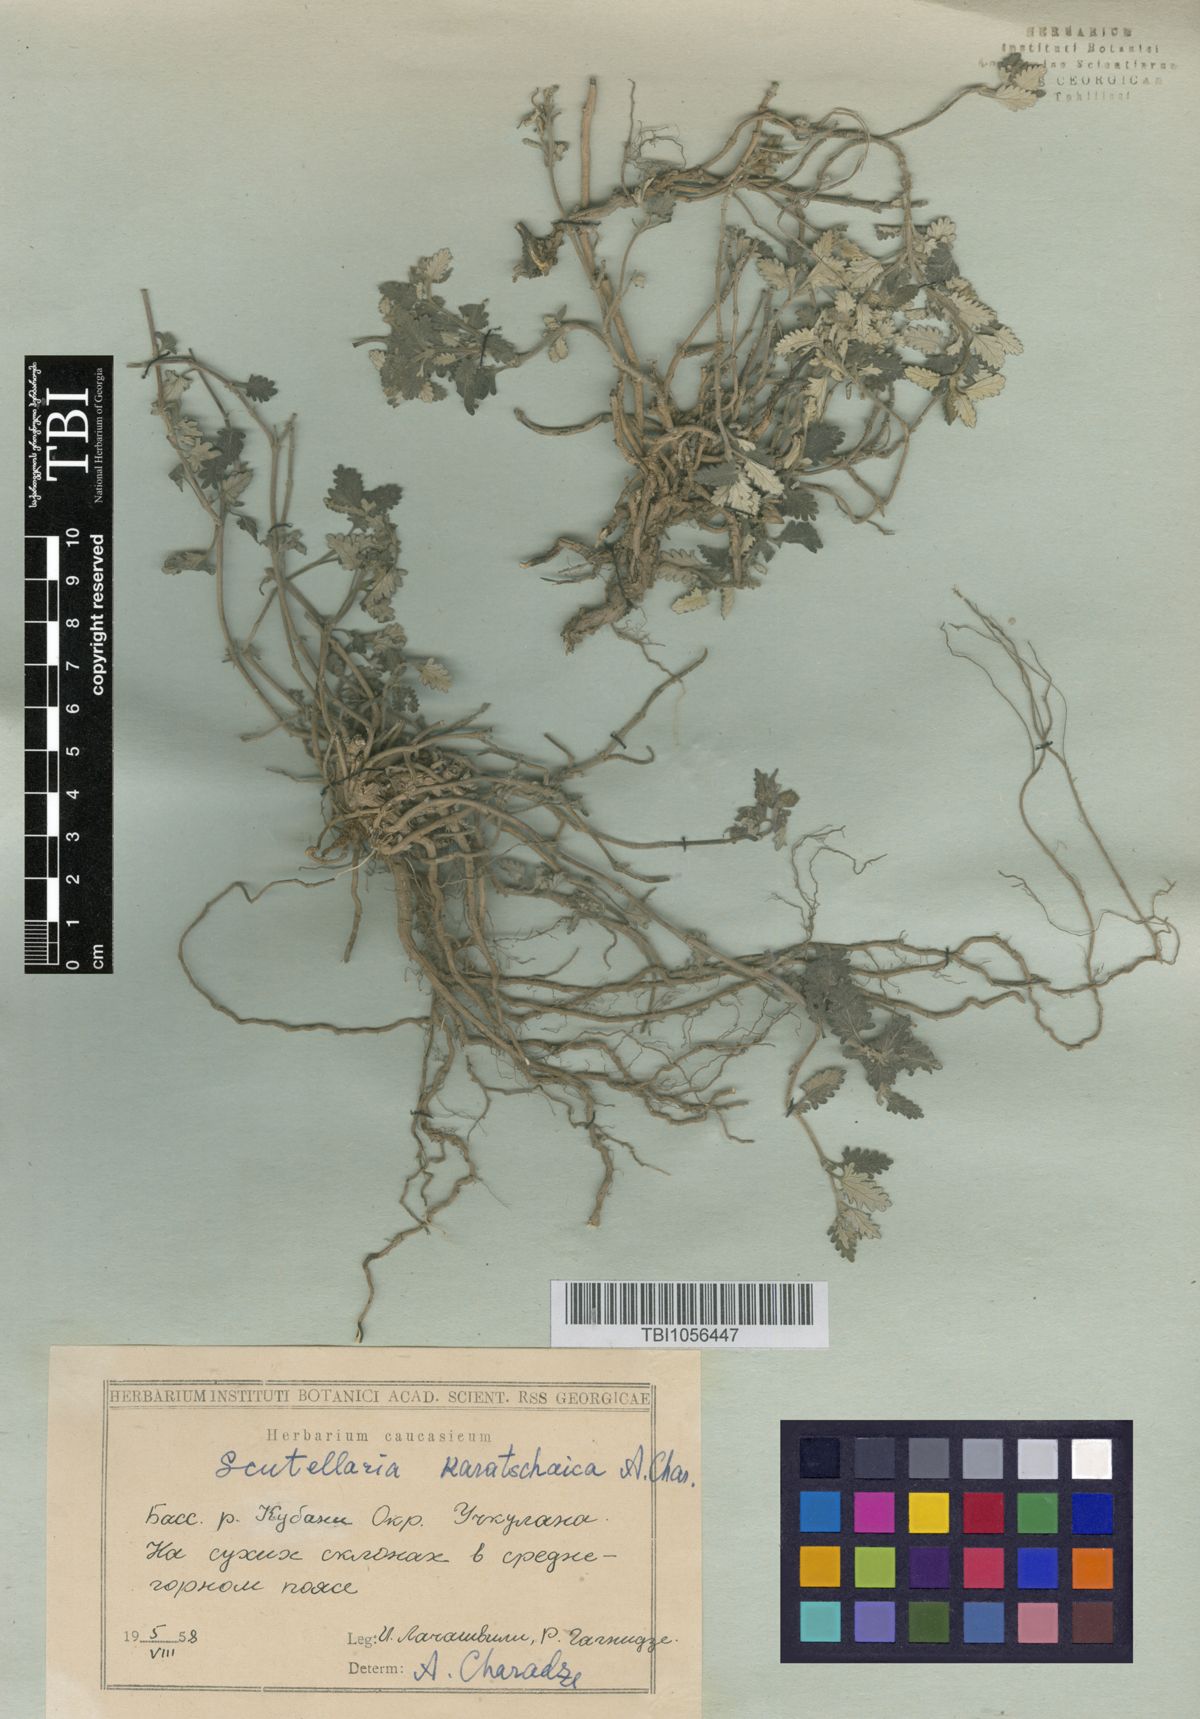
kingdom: Plantae
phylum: Tracheophyta
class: Magnoliopsida
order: Lamiales
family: Lamiaceae
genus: Scutellaria
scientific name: Scutellaria orientalis
